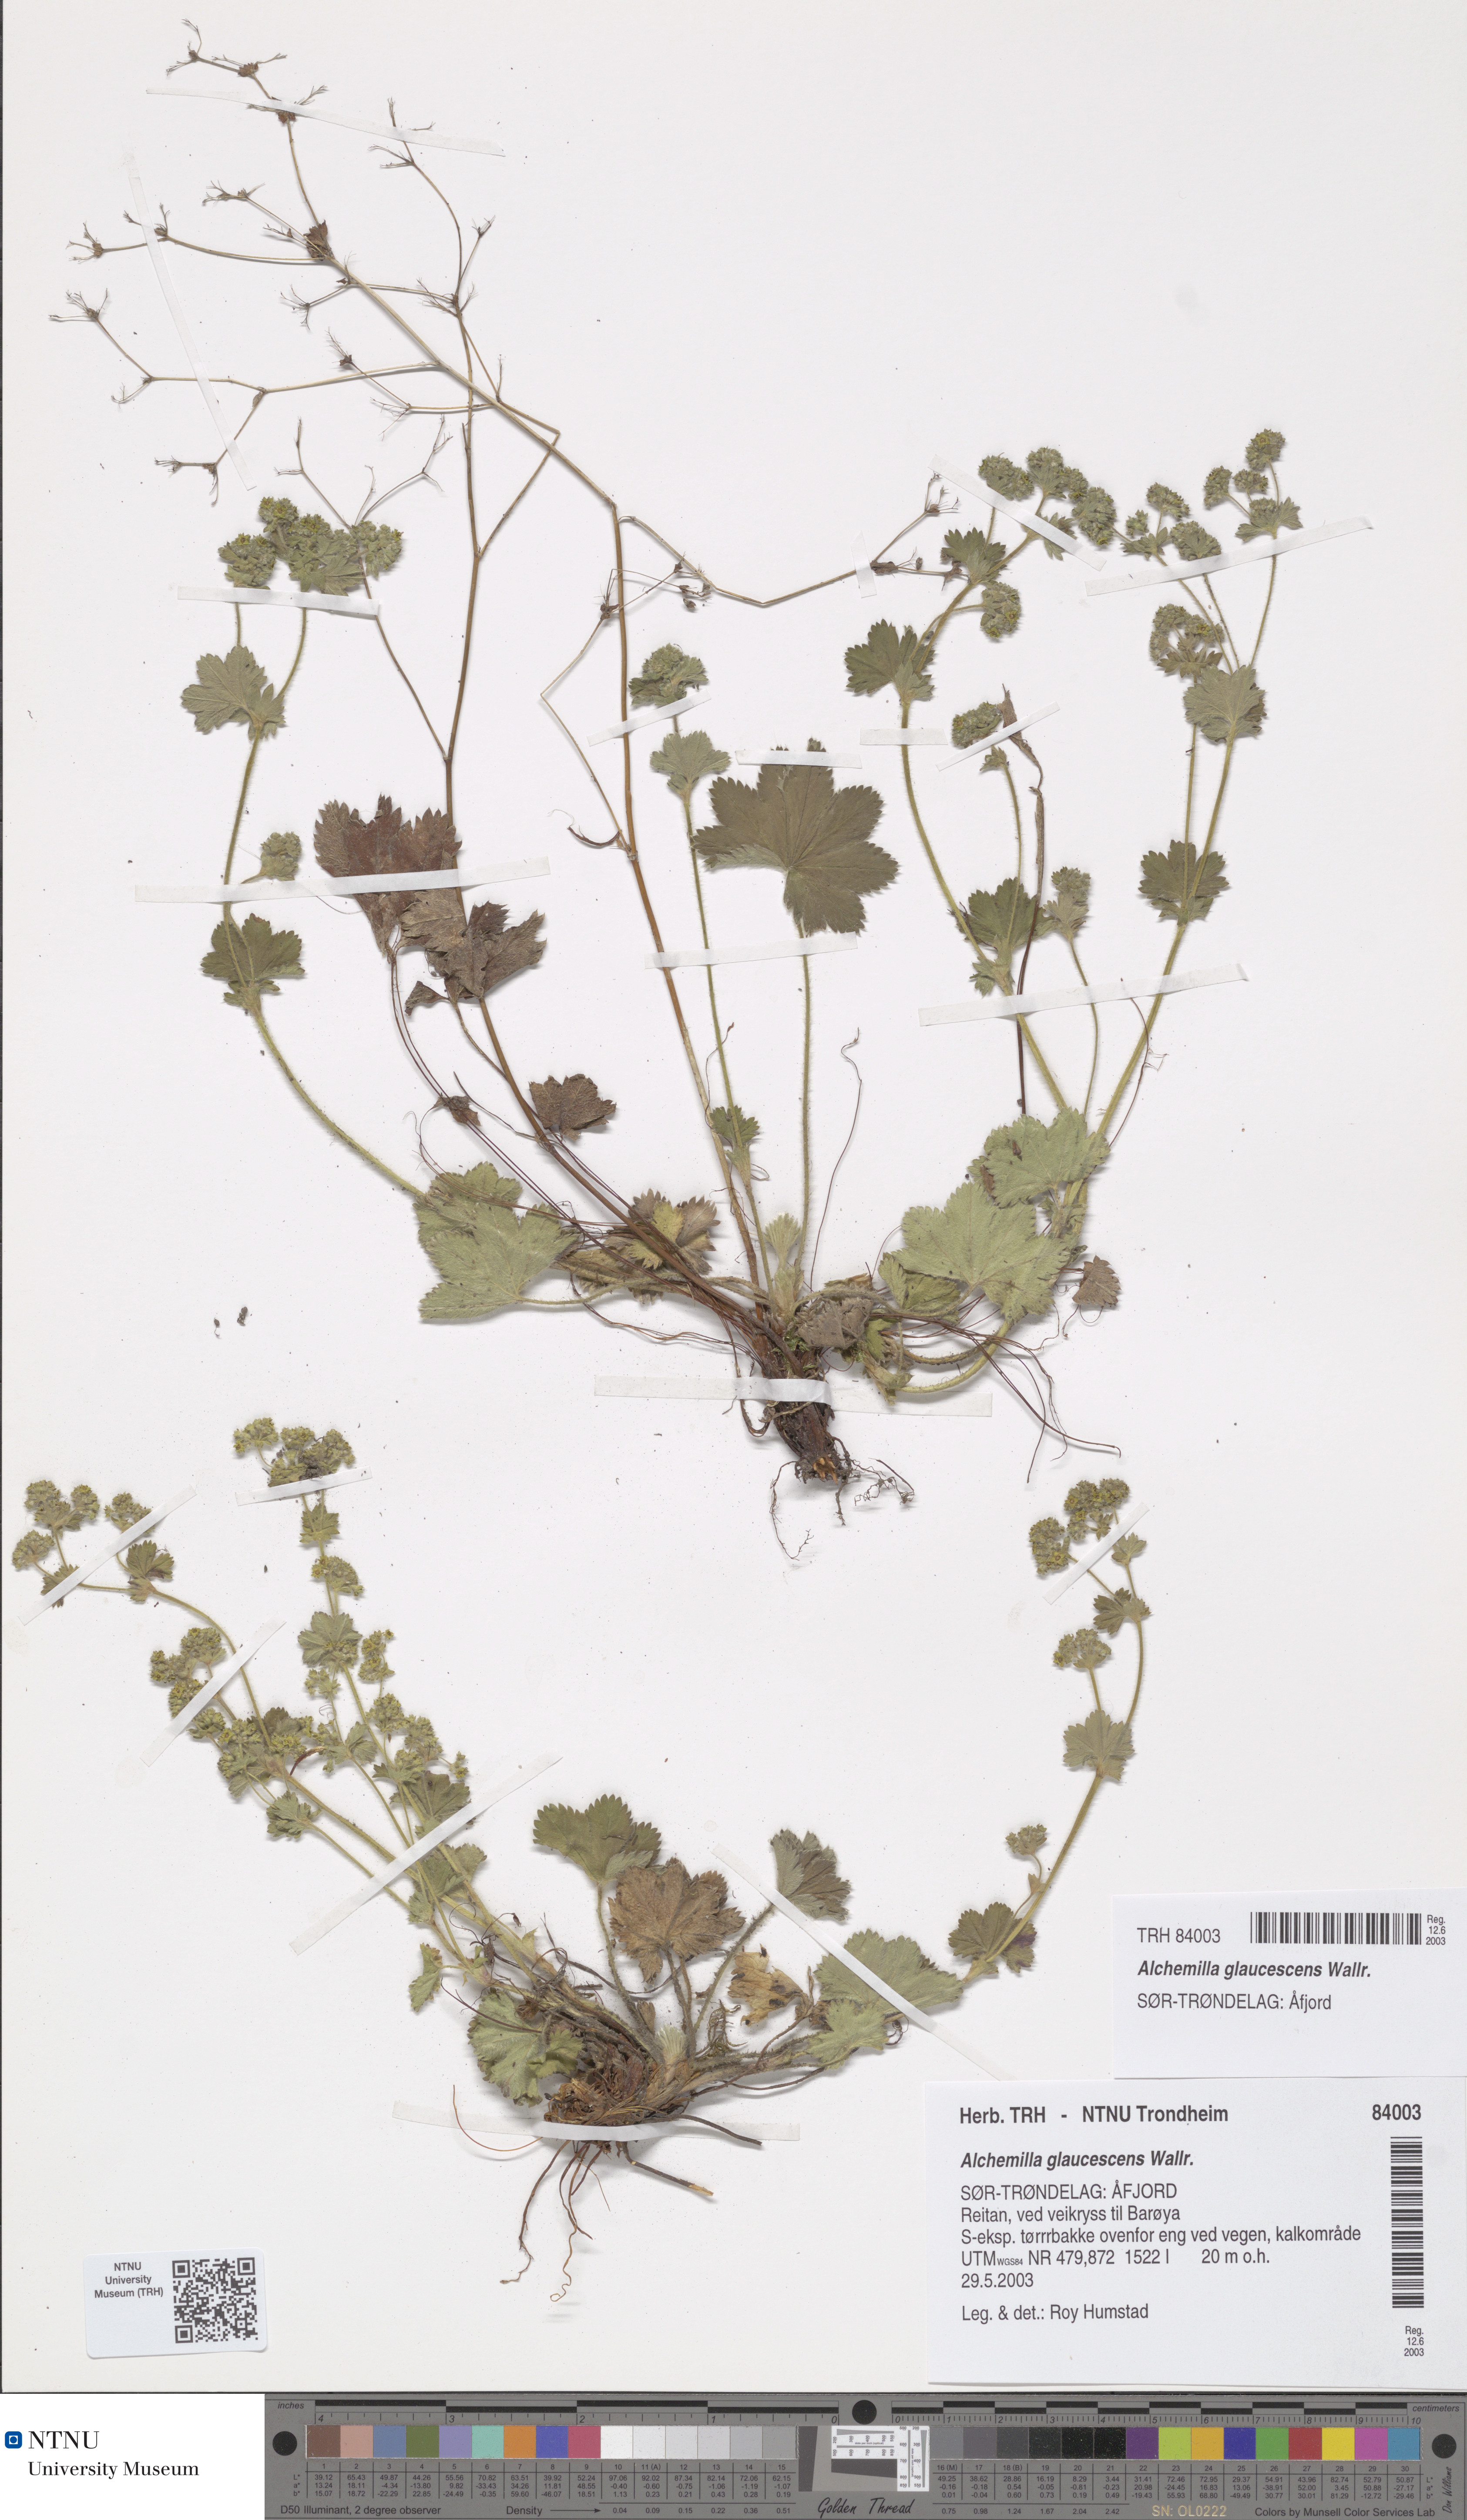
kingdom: Plantae
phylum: Tracheophyta
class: Magnoliopsida
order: Rosales
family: Rosaceae
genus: Alchemilla
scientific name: Alchemilla glaucescens
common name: Silky lady's mantle
